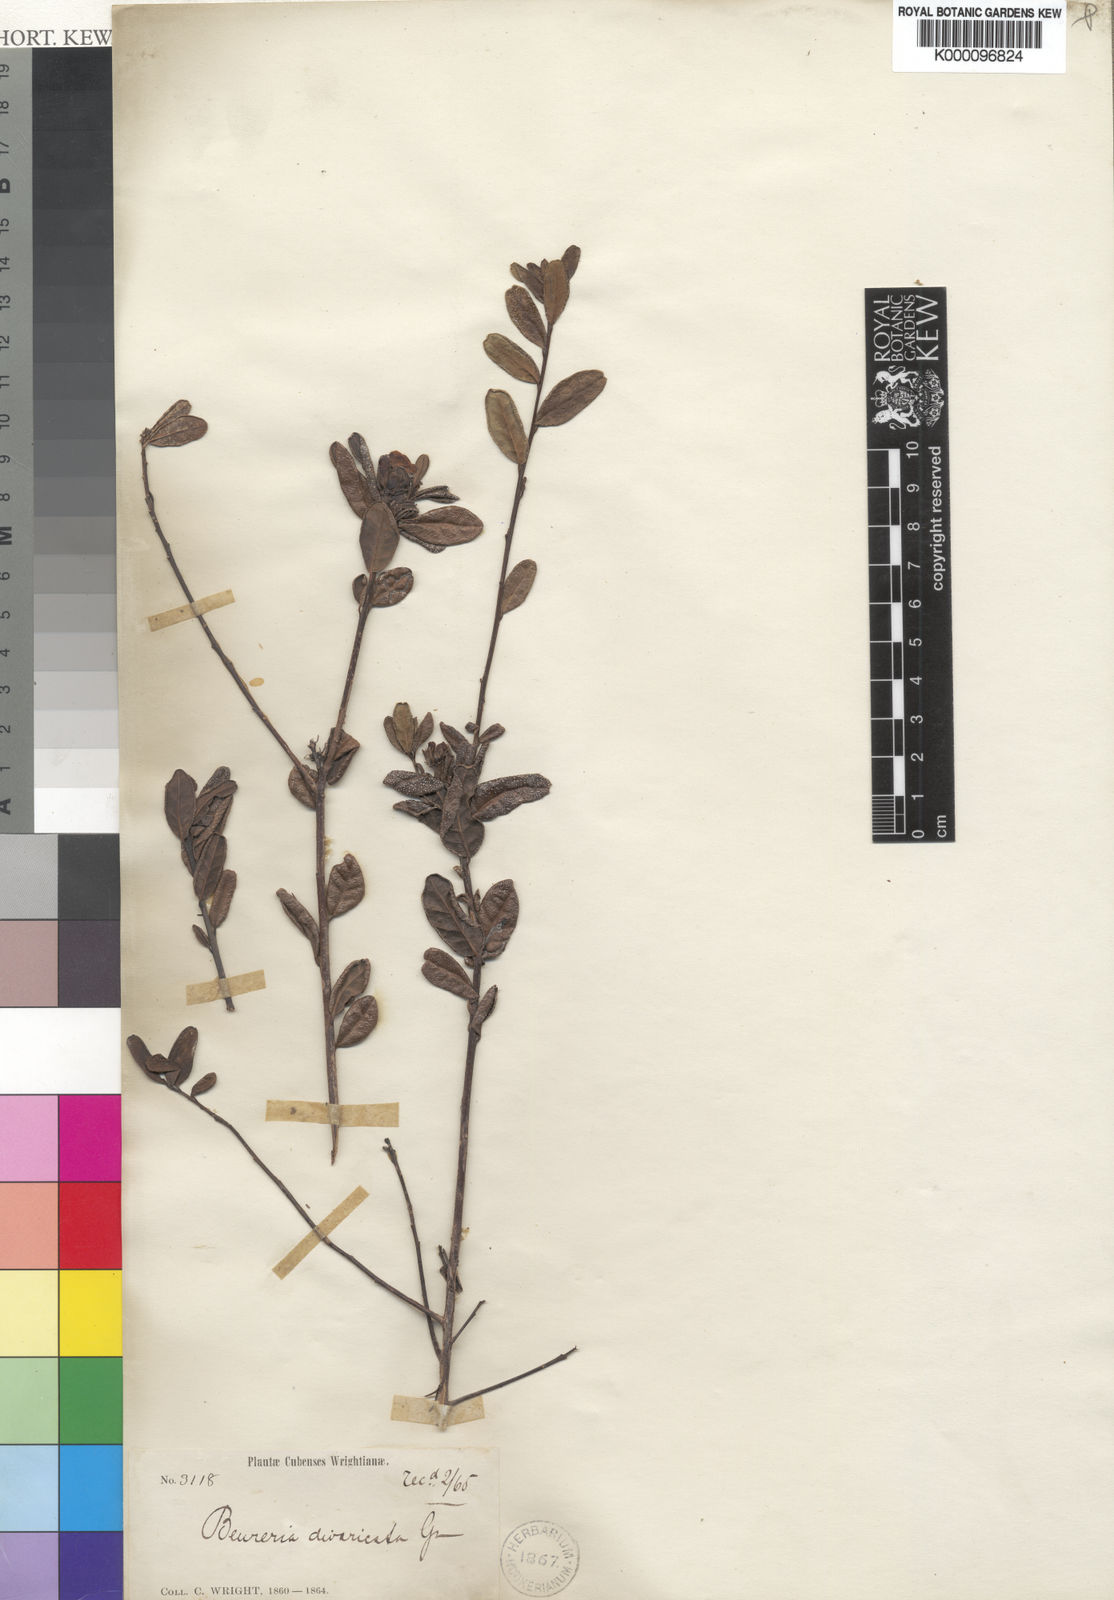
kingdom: Plantae
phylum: Tracheophyta
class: Magnoliopsida
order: Boraginales
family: Ehretiaceae
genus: Bourreria
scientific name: Bourreria divaricata
